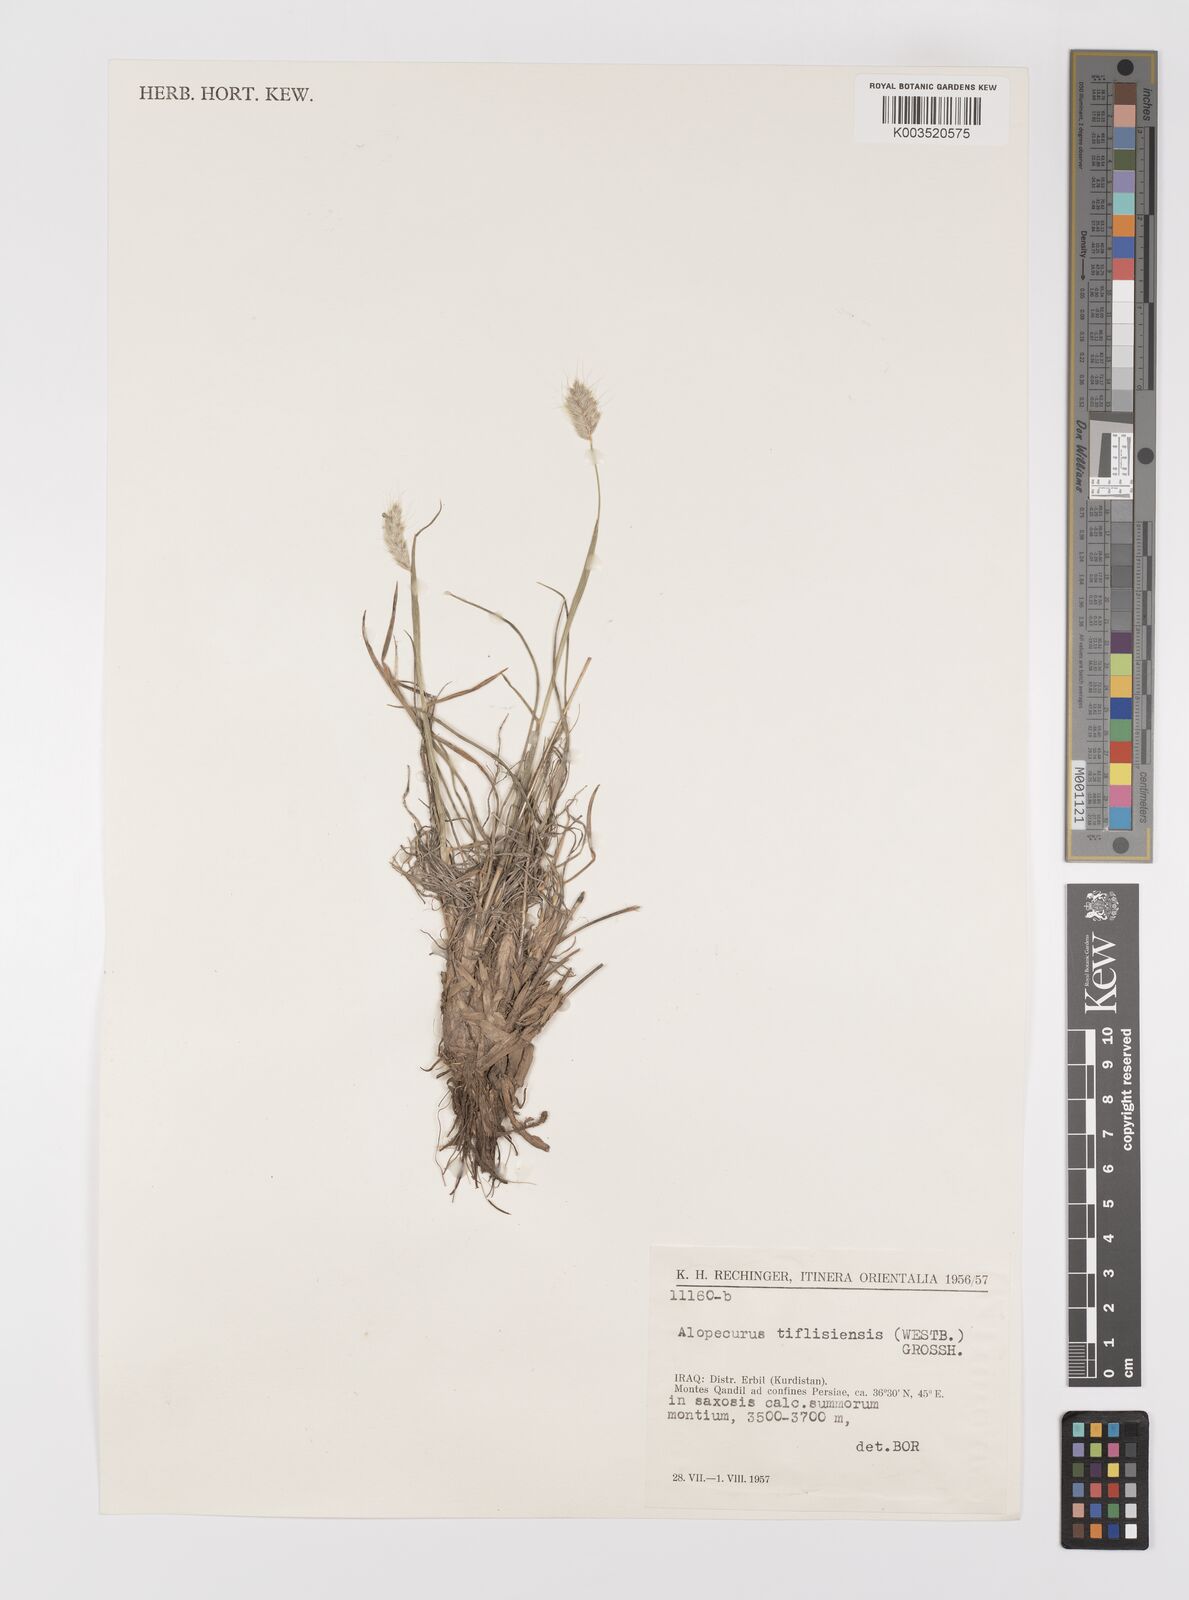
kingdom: Plantae
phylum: Tracheophyta
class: Liliopsida
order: Poales
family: Poaceae
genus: Alopecurus
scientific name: Alopecurus textilis
